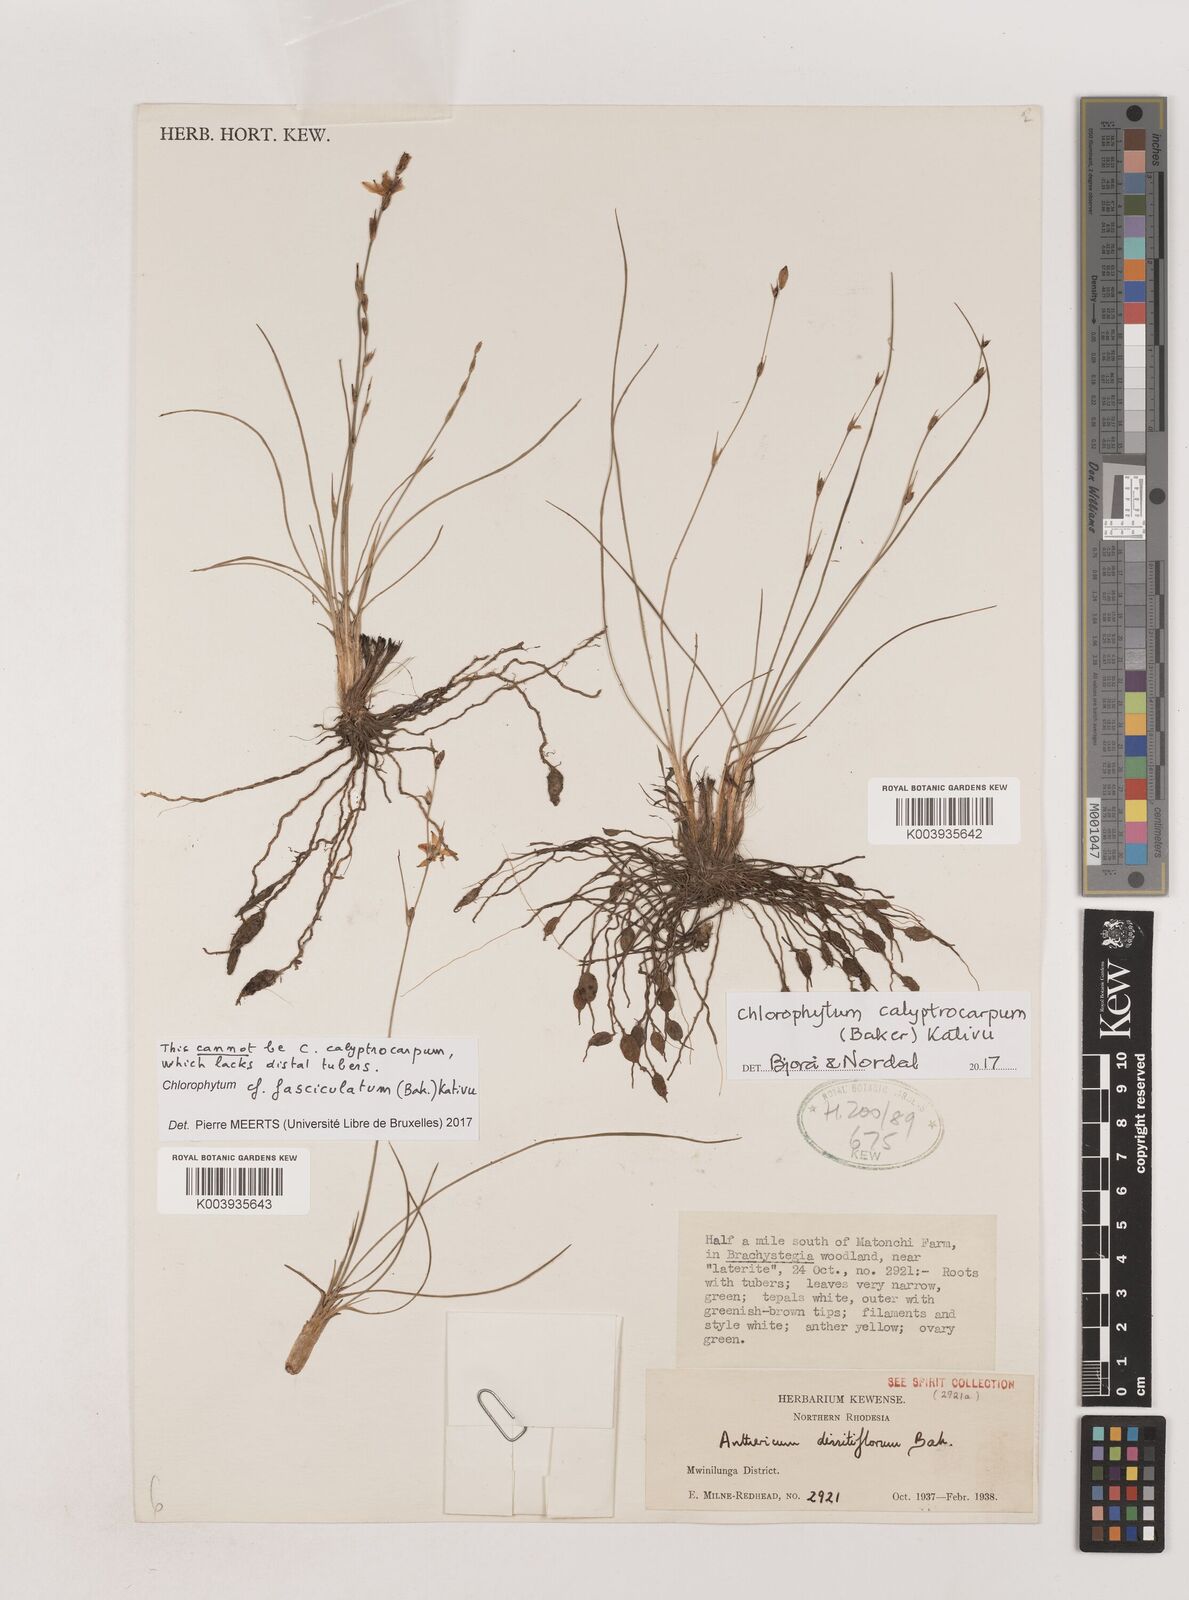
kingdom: Plantae
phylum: Tracheophyta
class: Liliopsida
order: Asparagales
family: Asparagaceae
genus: Chlorophytum
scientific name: Chlorophytum sphagnicola
